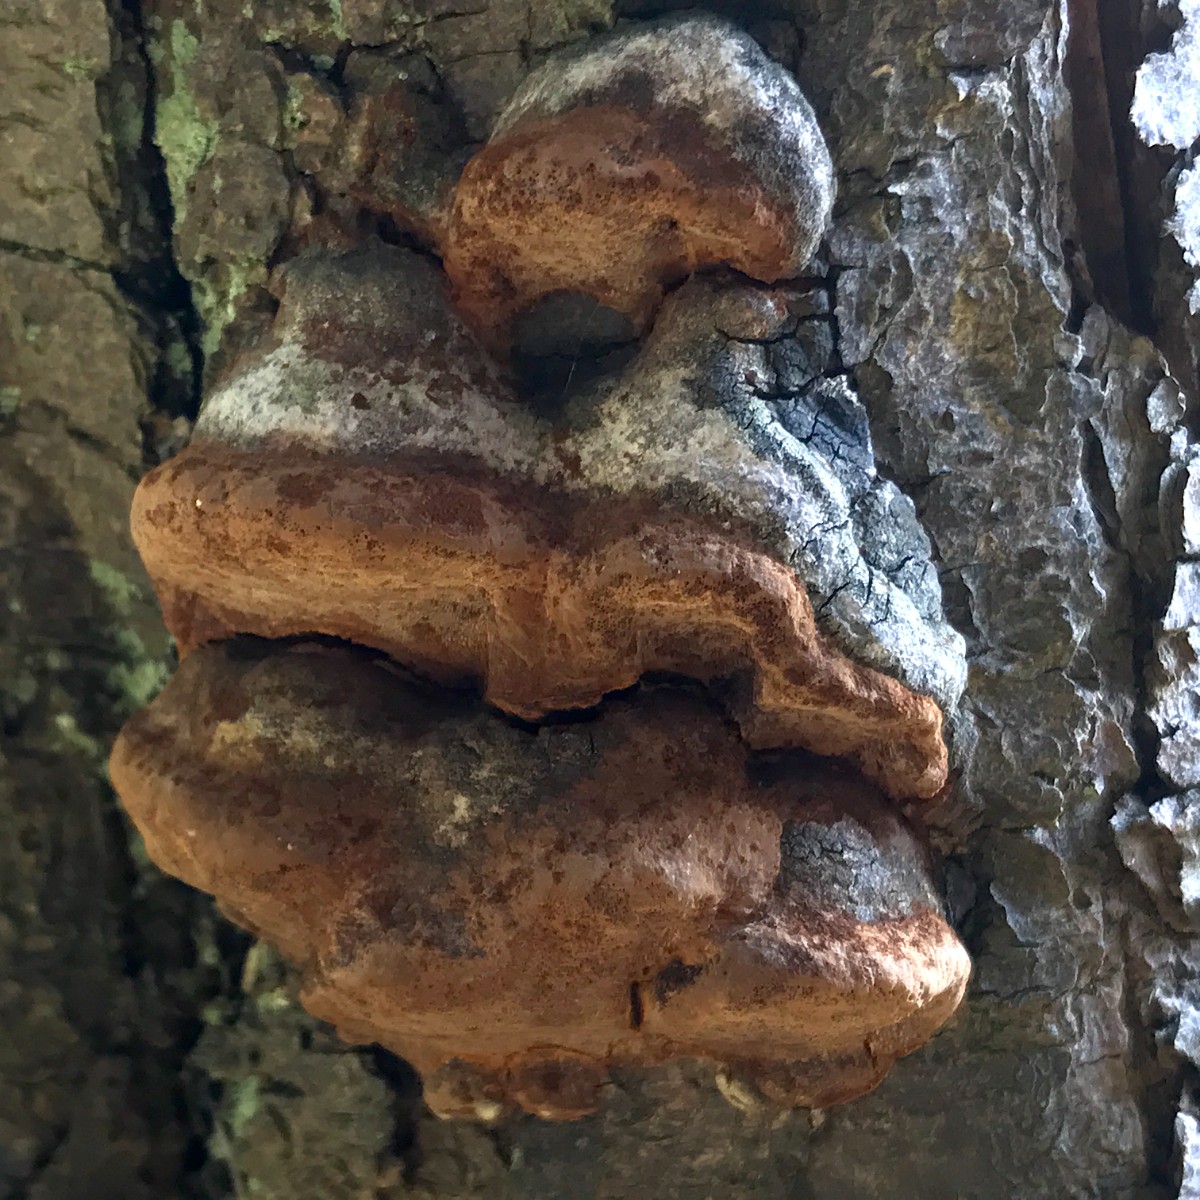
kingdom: Fungi
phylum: Basidiomycota
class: Agaricomycetes
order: Hymenochaetales
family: Hymenochaetaceae
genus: Phellinus
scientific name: Phellinus pomaceus
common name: blomme-ildporesvamp
